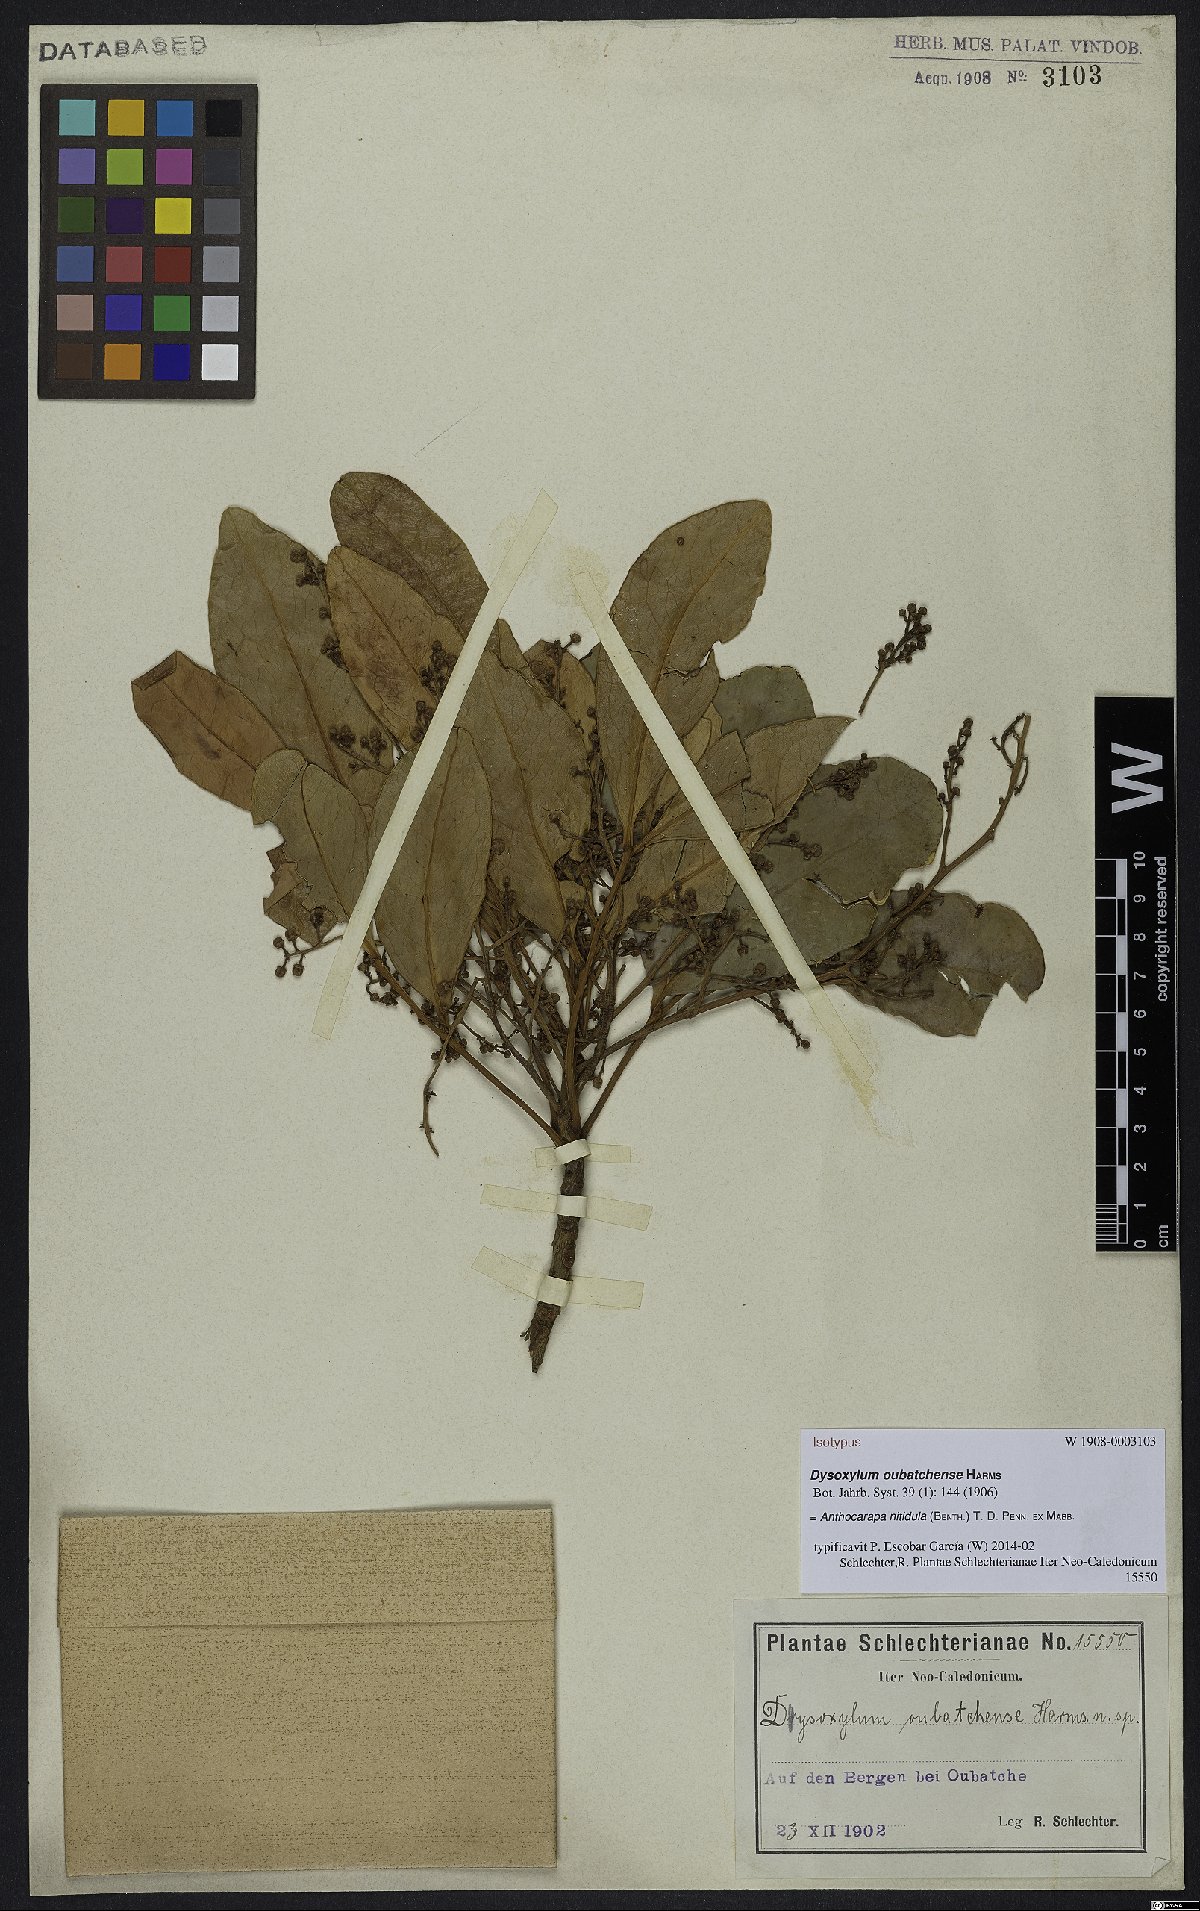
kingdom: Plantae
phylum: Tracheophyta
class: Magnoliopsida
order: Sapindales
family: Meliaceae
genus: Anthocarapa
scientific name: Anthocarapa nitidula
